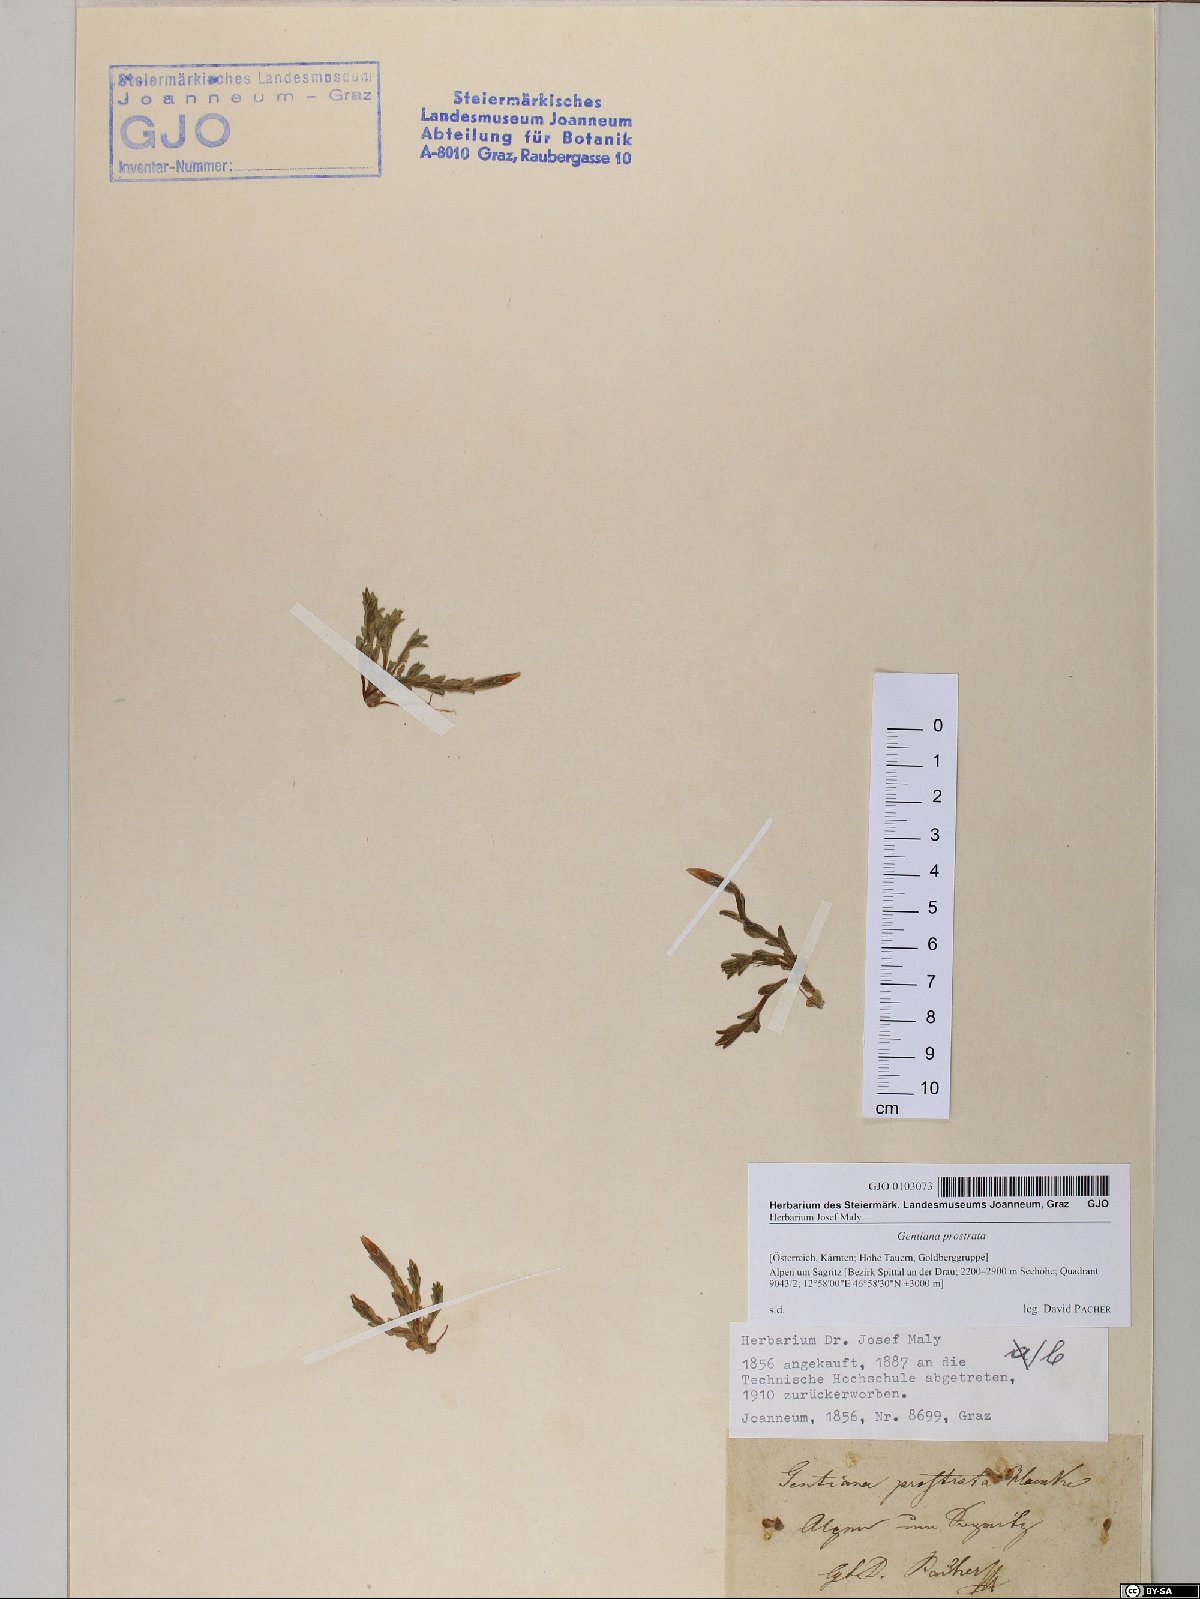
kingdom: Plantae
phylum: Tracheophyta
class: Magnoliopsida
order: Gentianales
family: Gentianaceae
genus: Gentiana
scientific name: Gentiana prostrata
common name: Moss gentian
